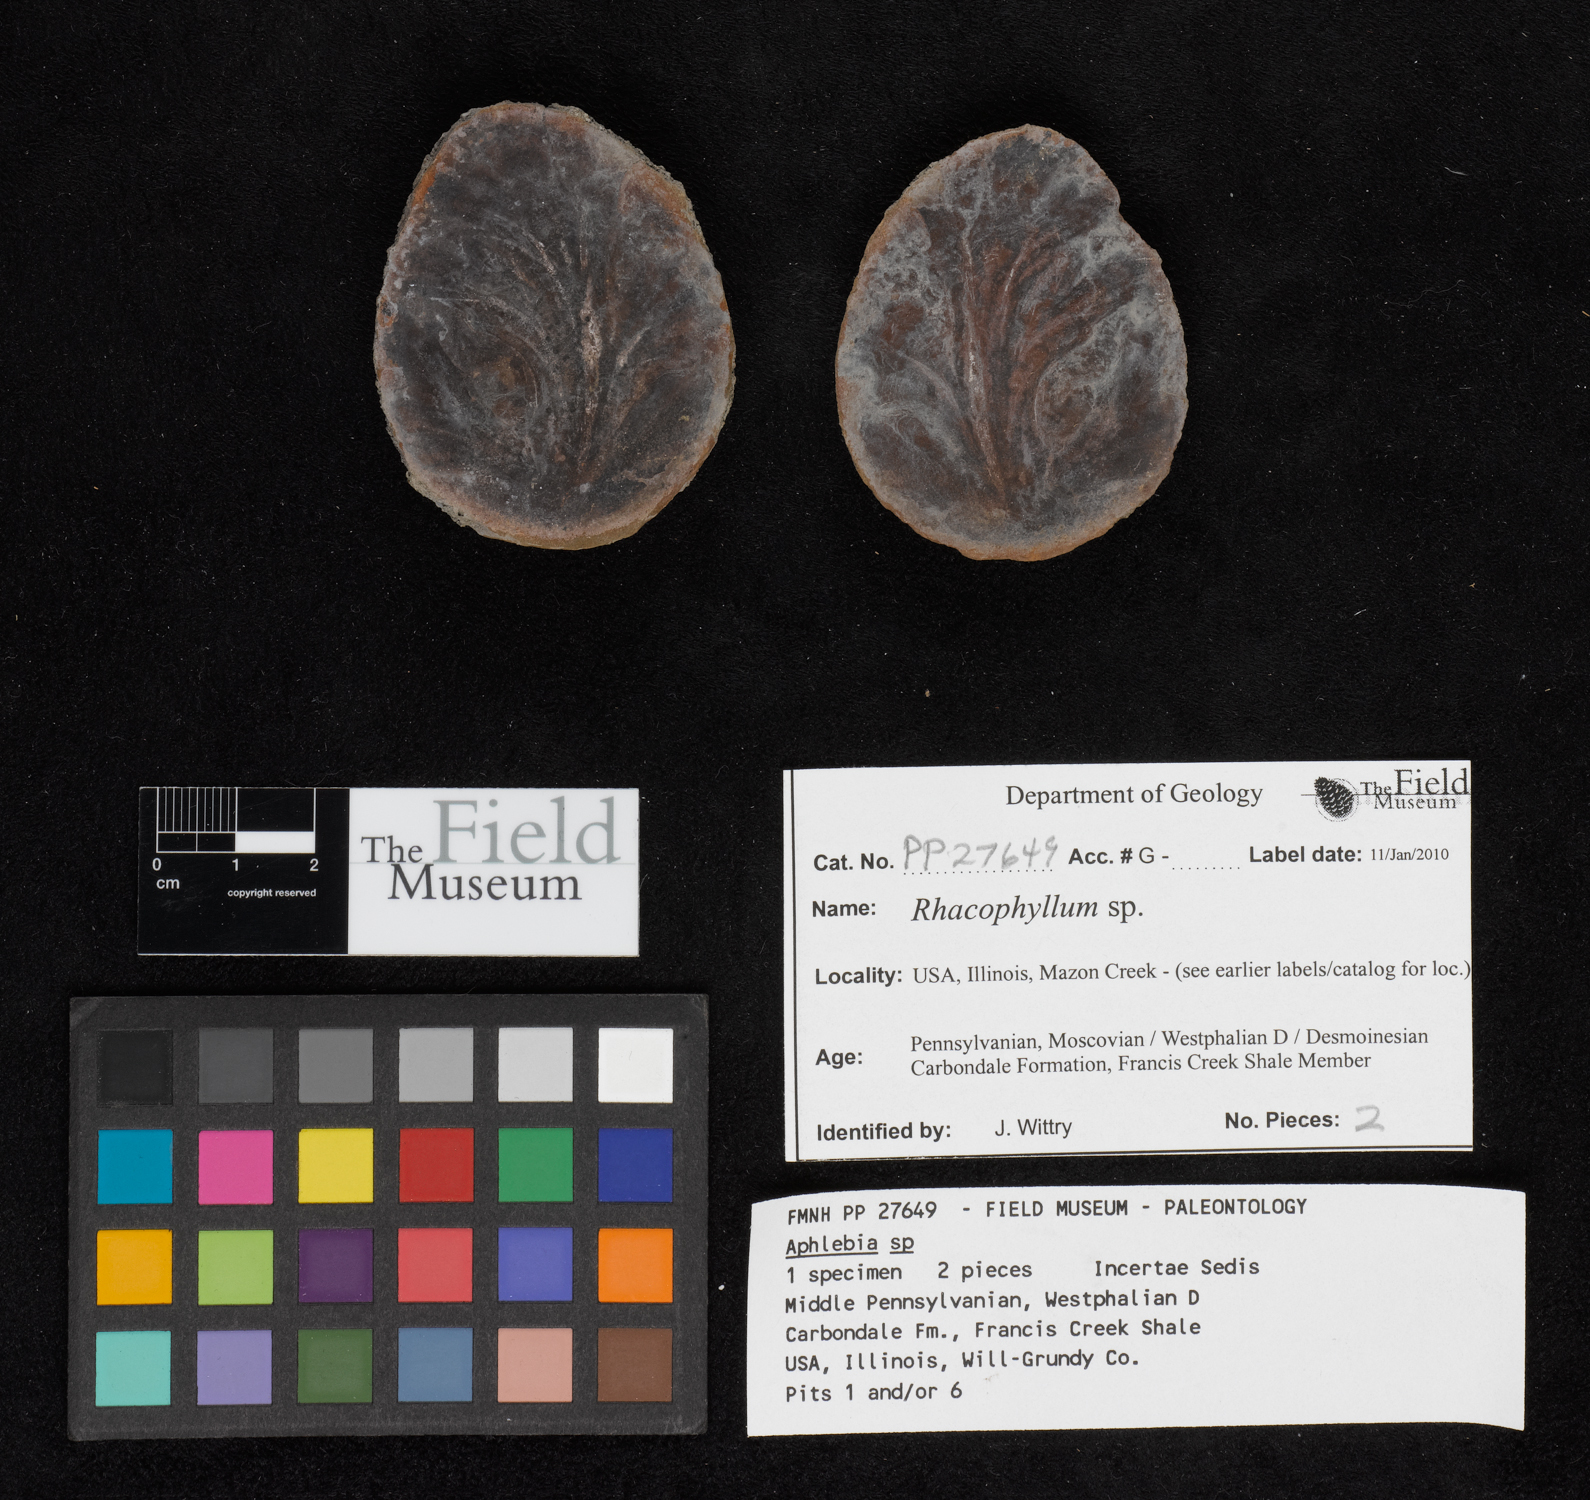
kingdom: Plantae
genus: Rhacophyllum
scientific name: Rhacophyllum
